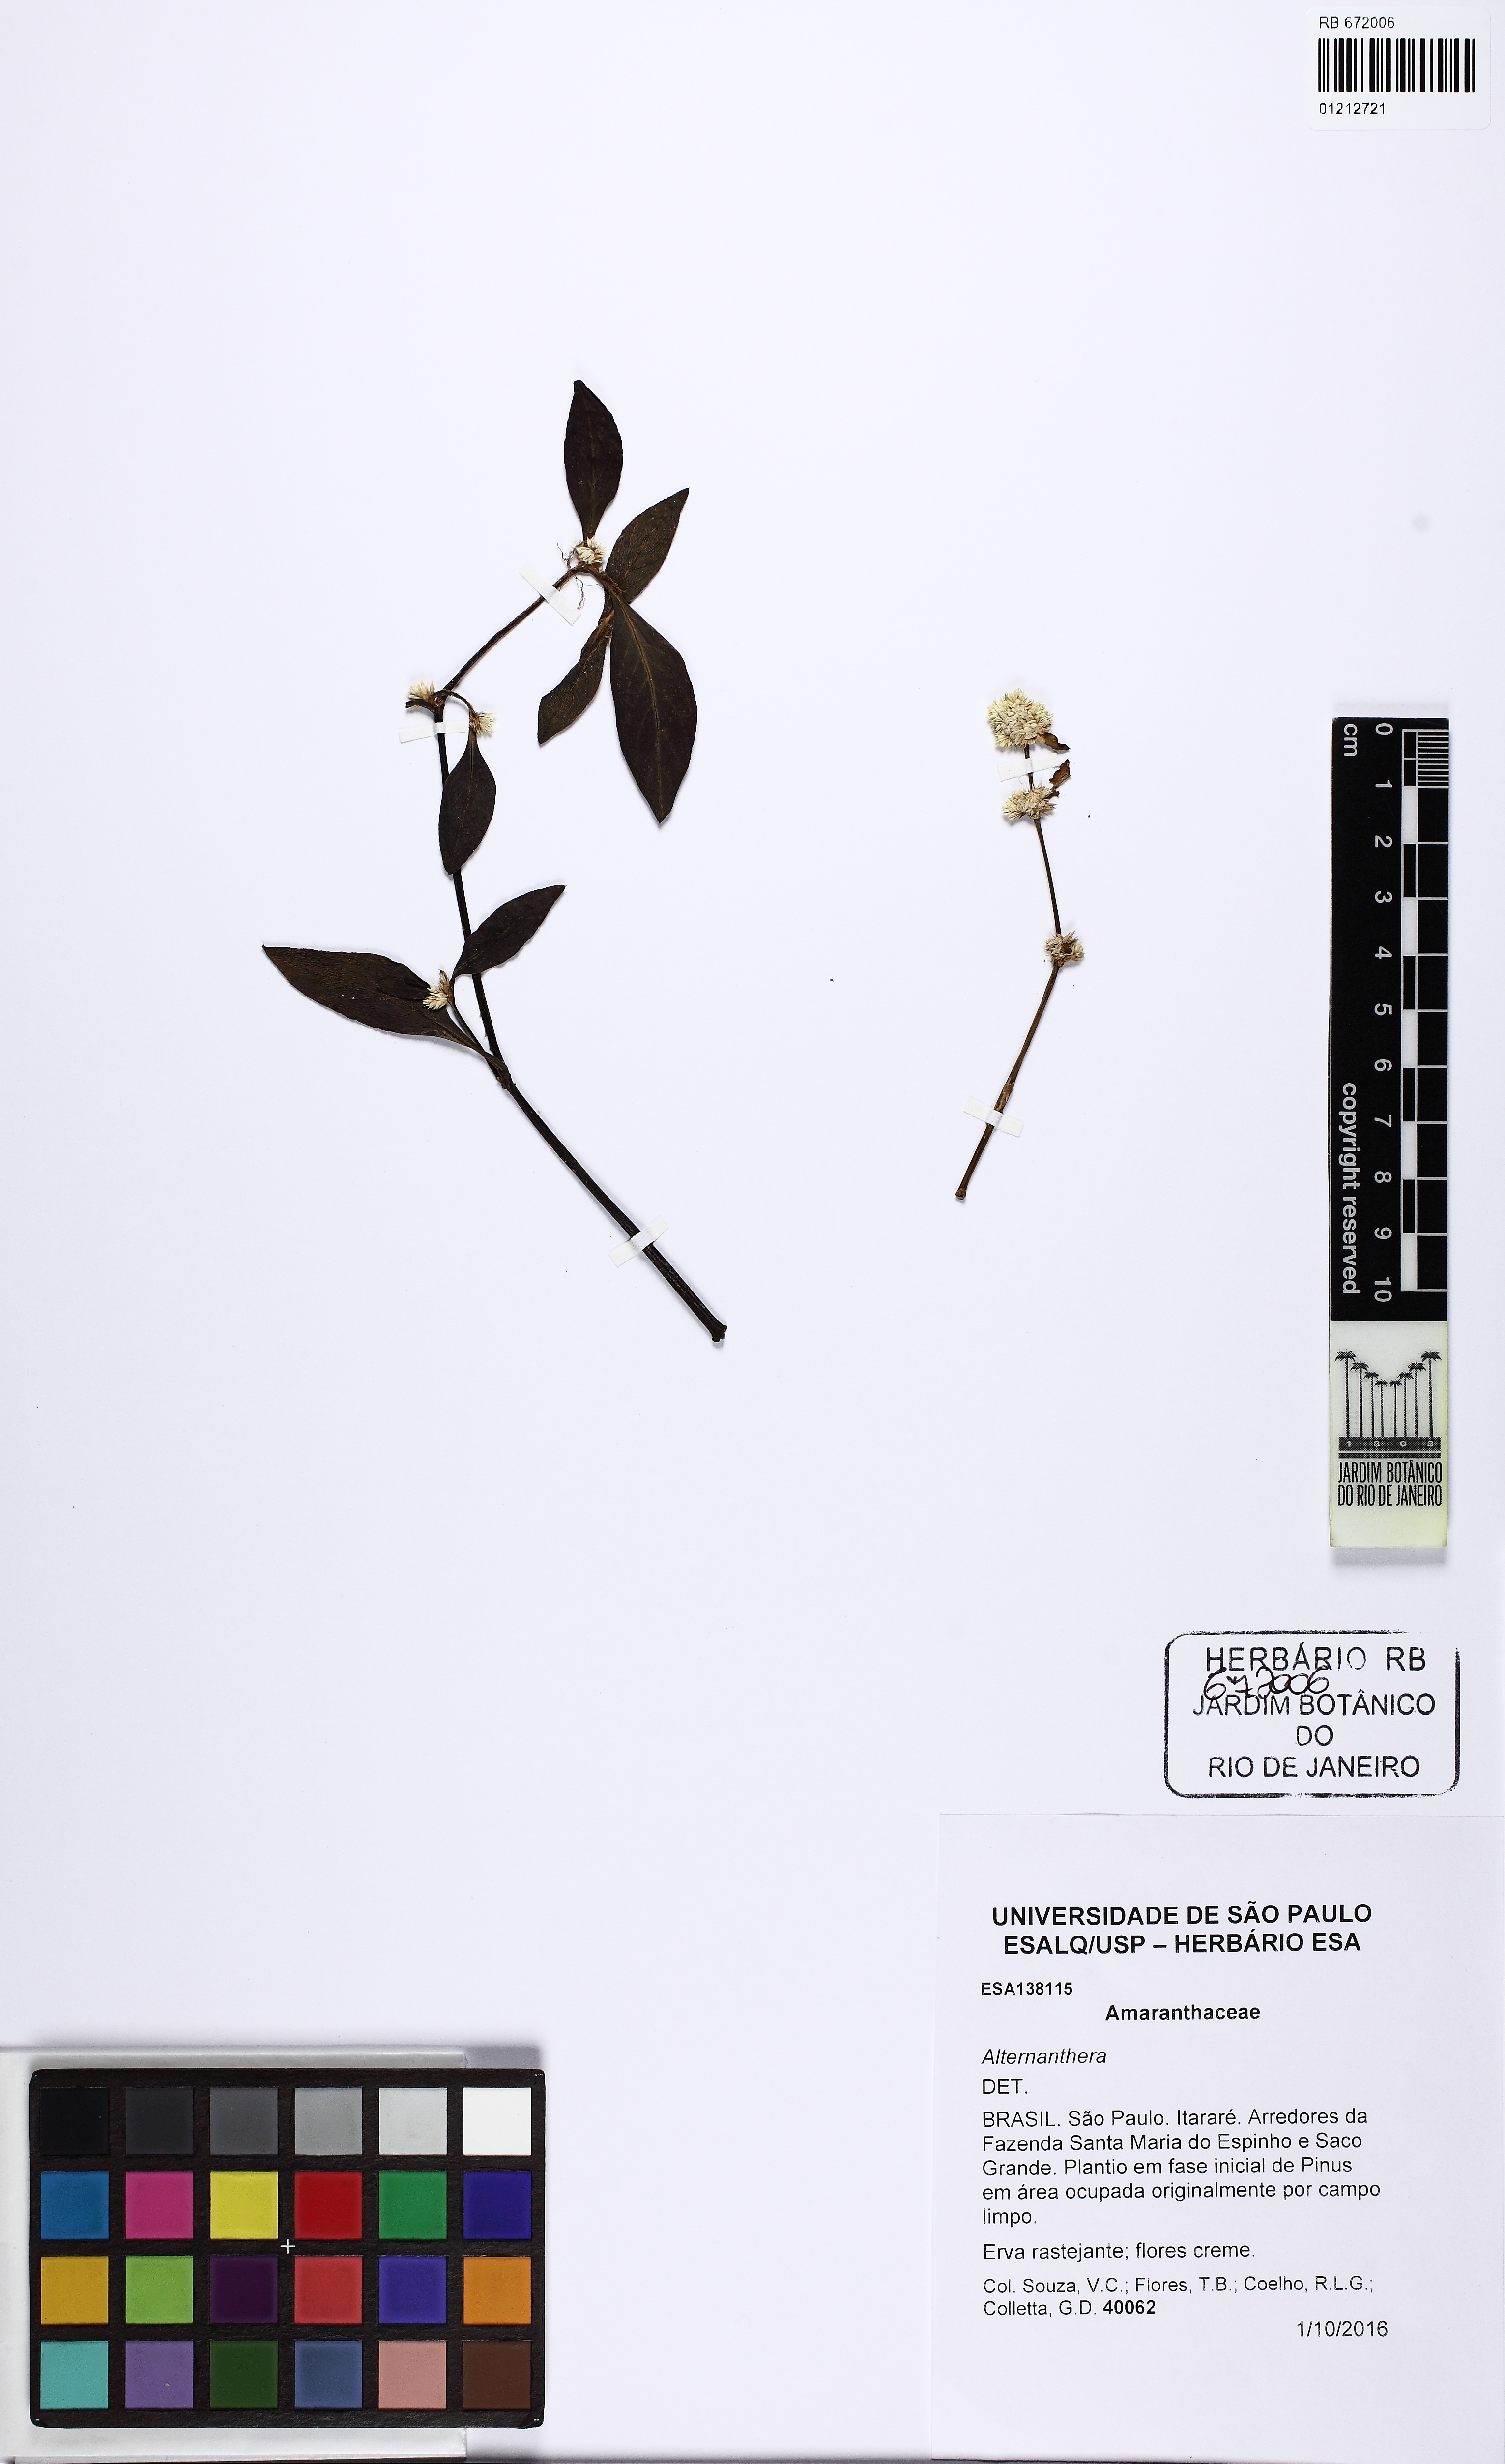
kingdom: Plantae
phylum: Tracheophyta
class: Magnoliopsida
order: Caryophyllales
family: Amaranthaceae
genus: Alternanthera
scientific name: Alternanthera
